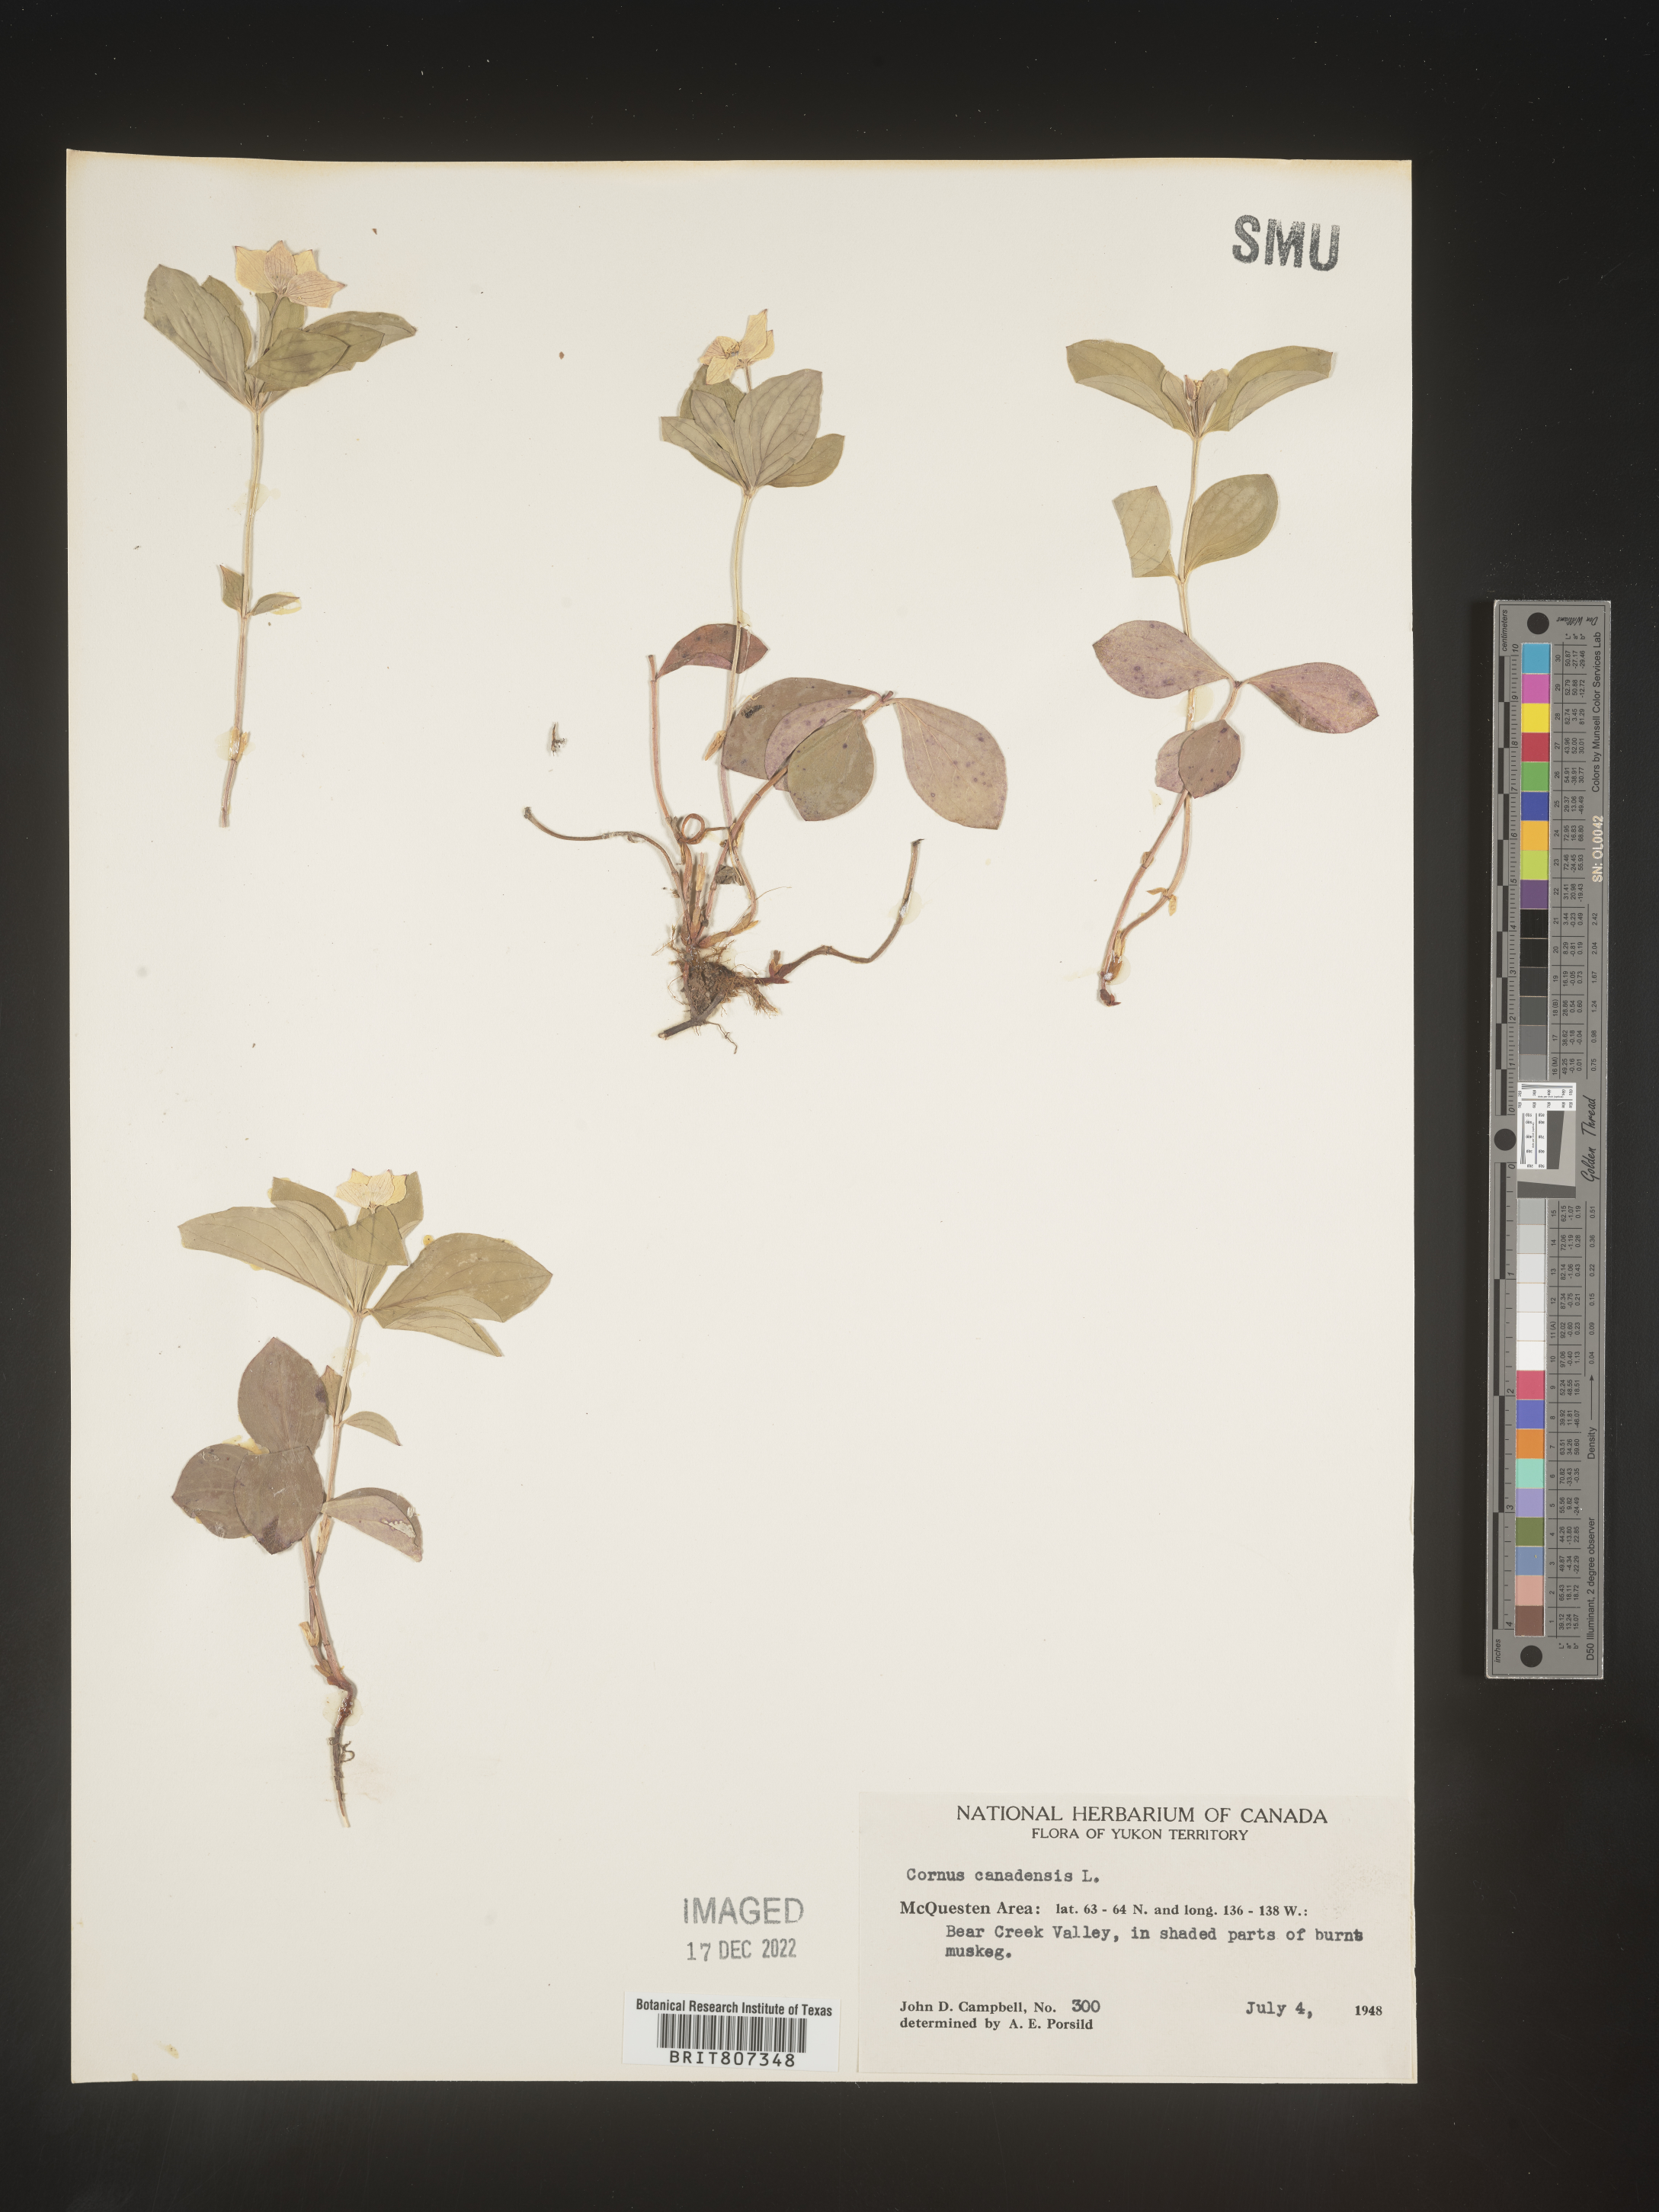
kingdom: Plantae
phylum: Tracheophyta
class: Magnoliopsida
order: Cornales
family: Cornaceae
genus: Cornus
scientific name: Cornus canadensis
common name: Creeping dogwood
